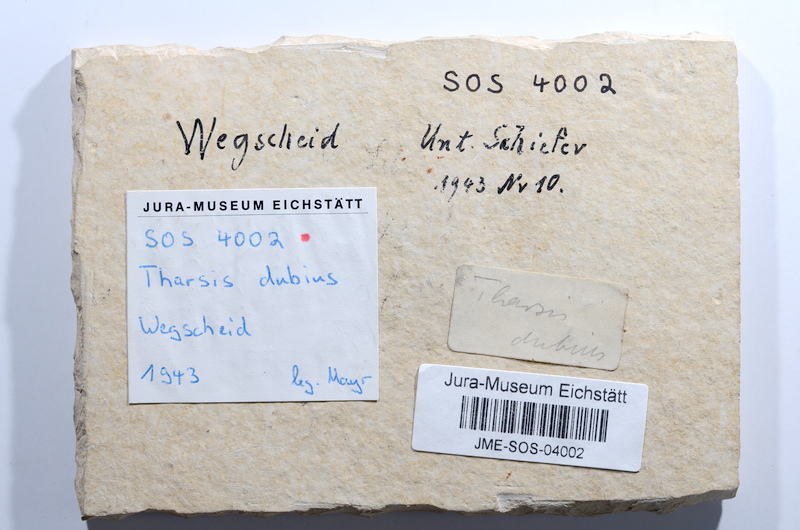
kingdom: Animalia
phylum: Chordata
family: Ascalaboidae
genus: Tharsis
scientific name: Tharsis dubius
